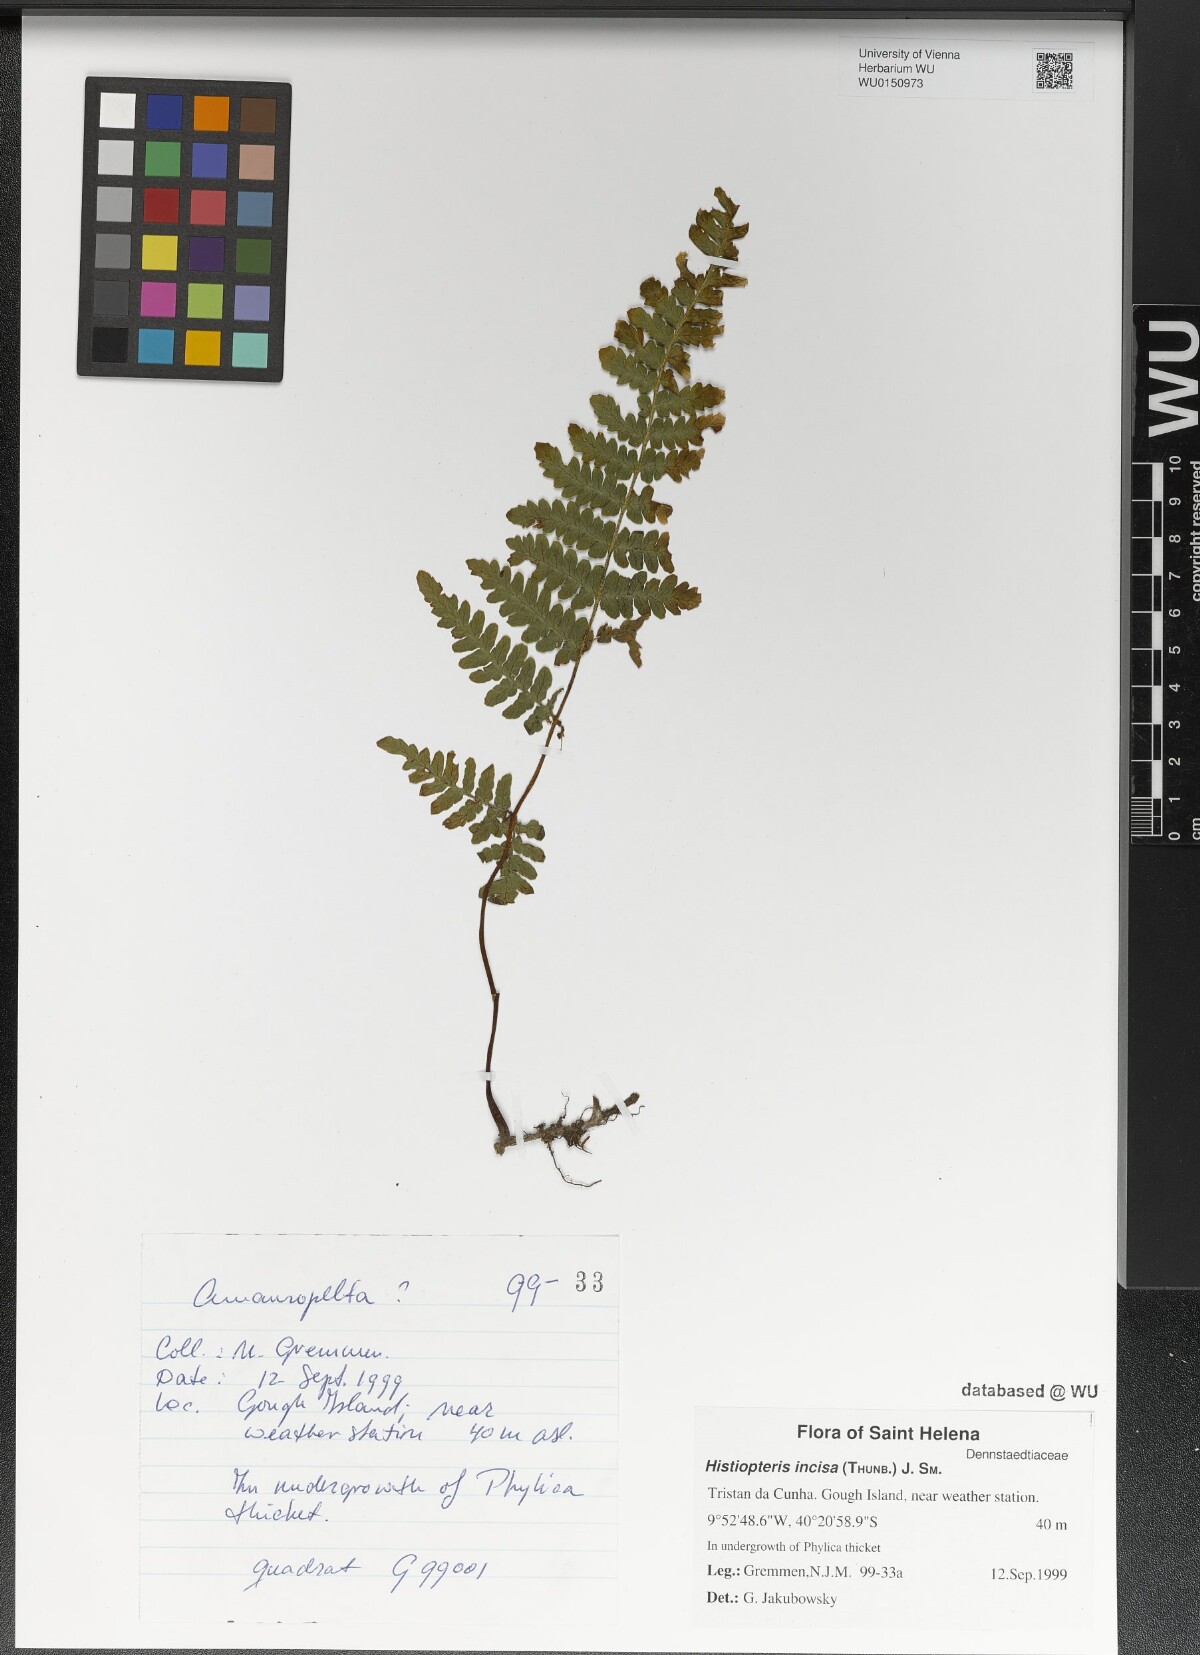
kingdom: Plantae
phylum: Tracheophyta
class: Polypodiopsida
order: Polypodiales
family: Dennstaedtiaceae
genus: Histiopteris
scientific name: Histiopteris incisa
